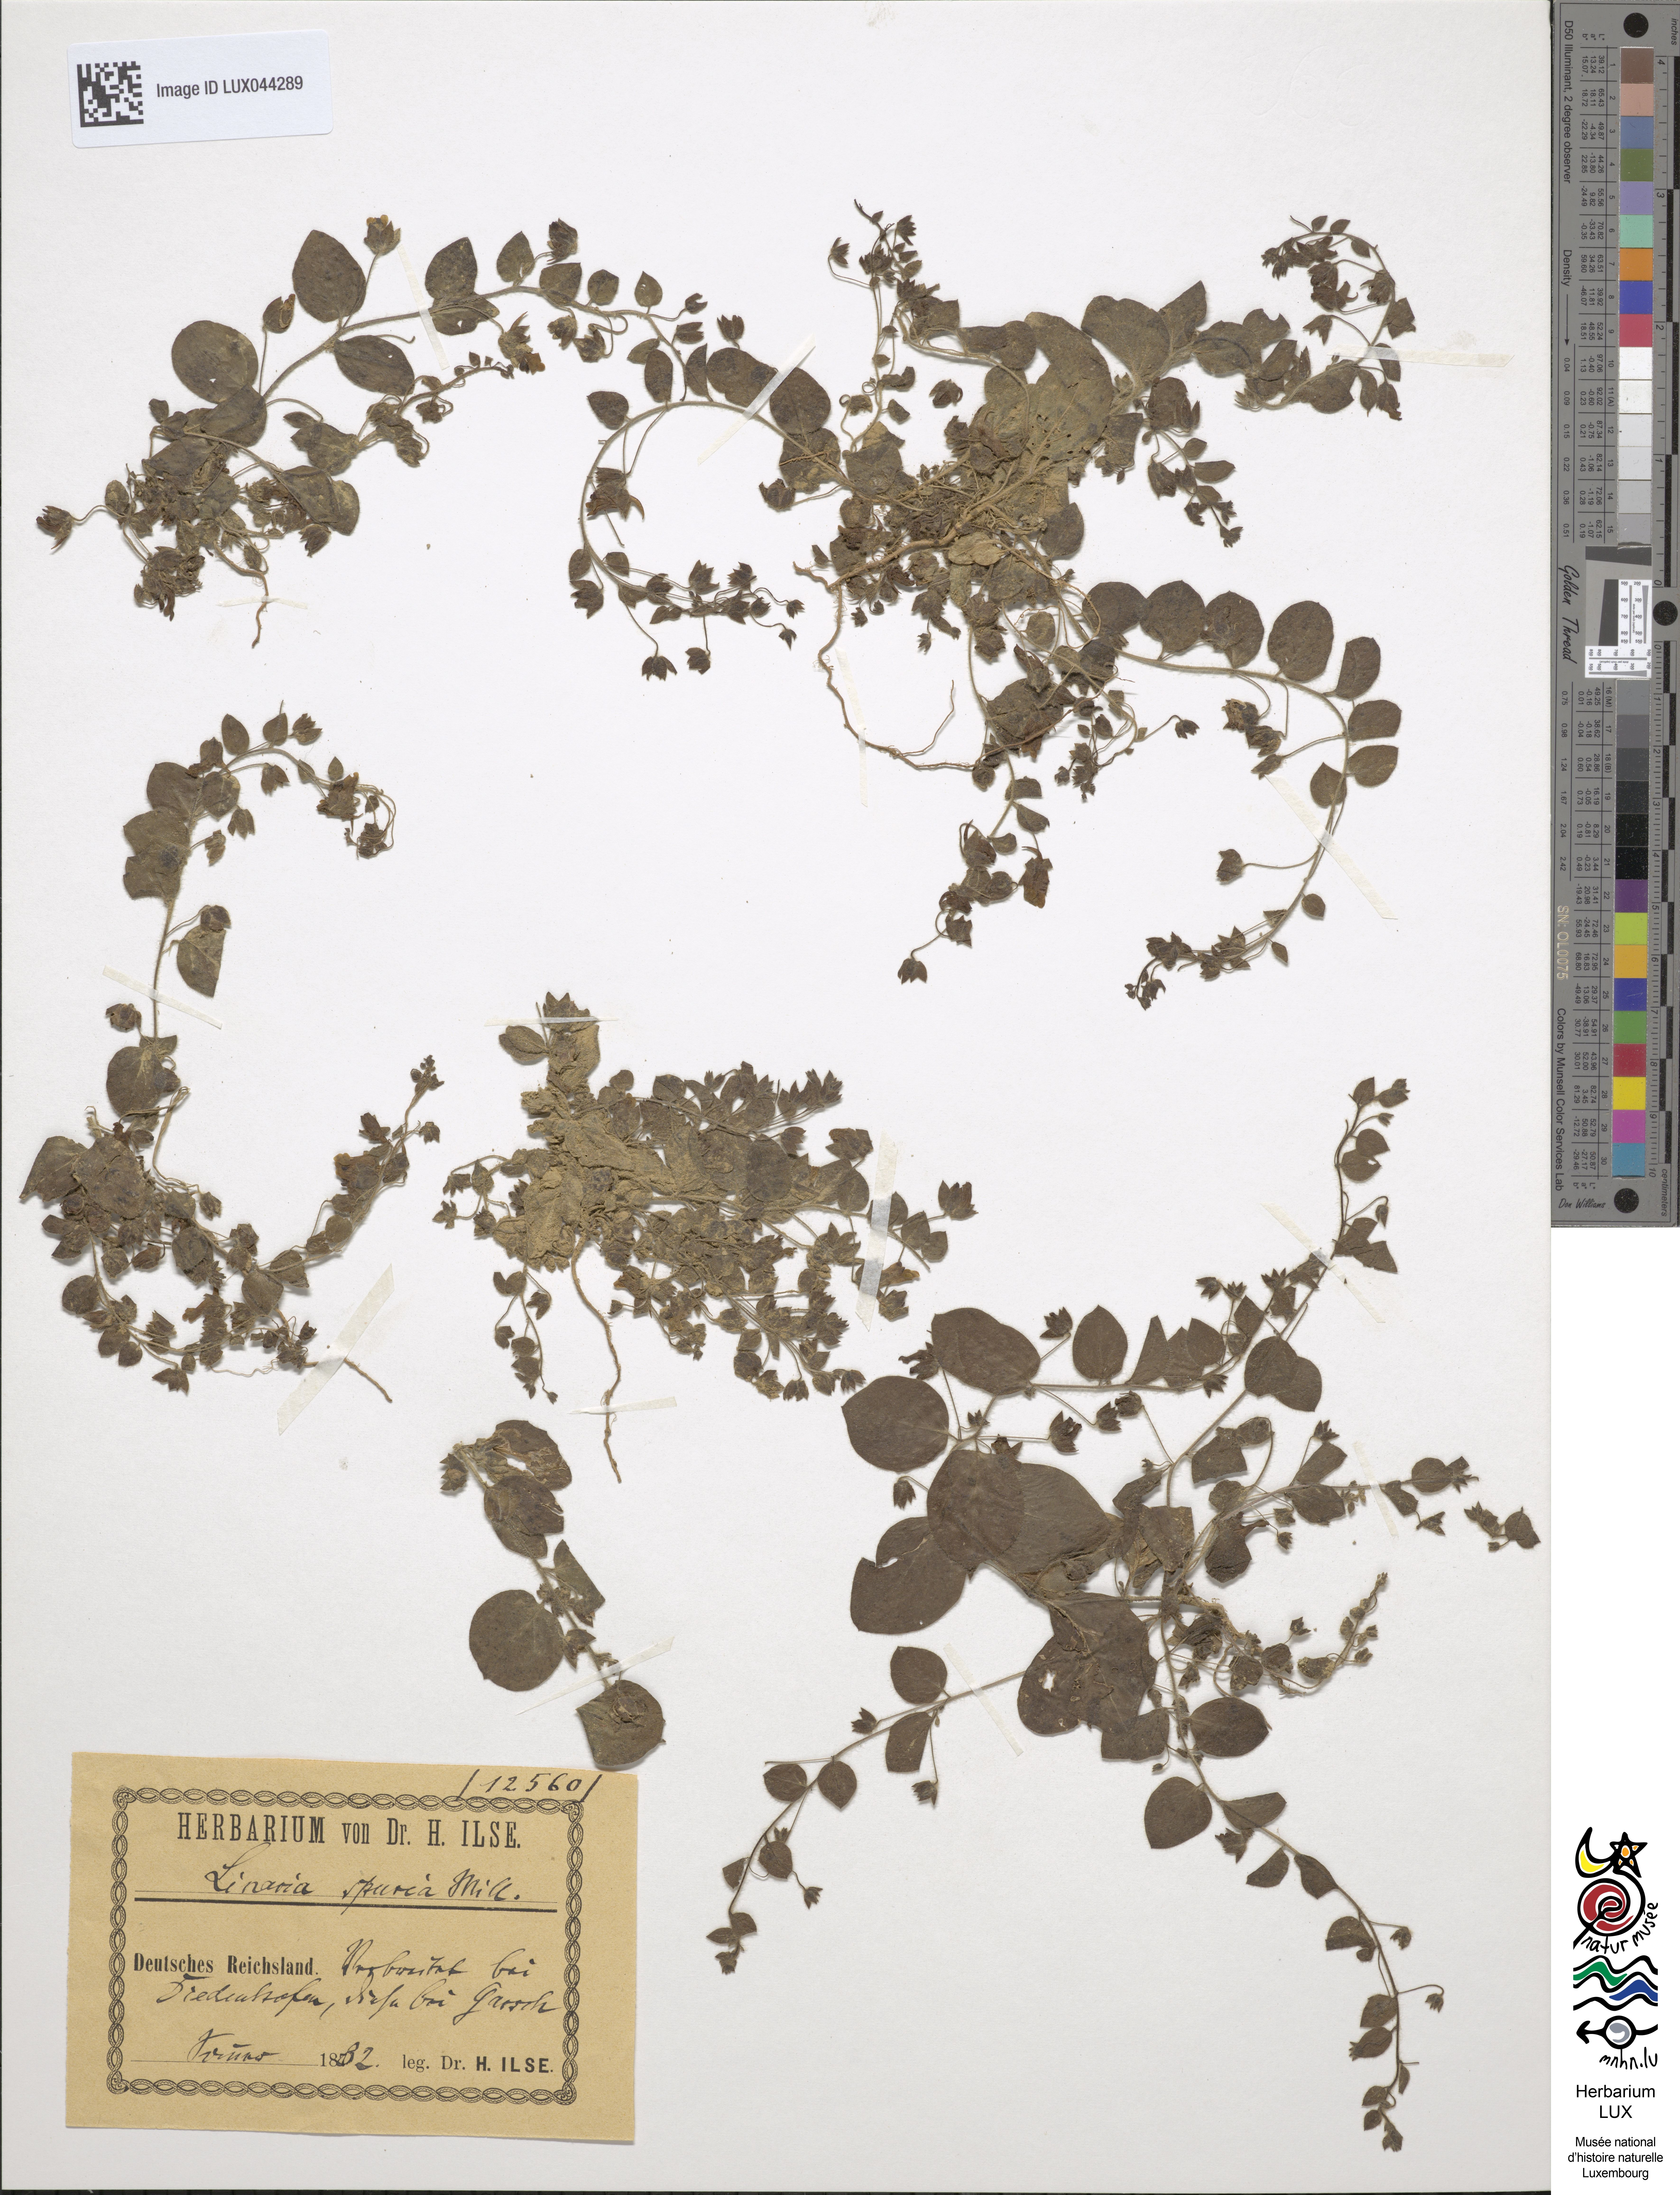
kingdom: Plantae
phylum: Tracheophyta
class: Magnoliopsida
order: Lamiales
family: Plantaginaceae
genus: Kickxia
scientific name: Kickxia spuria
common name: Round-leaved fluellen
